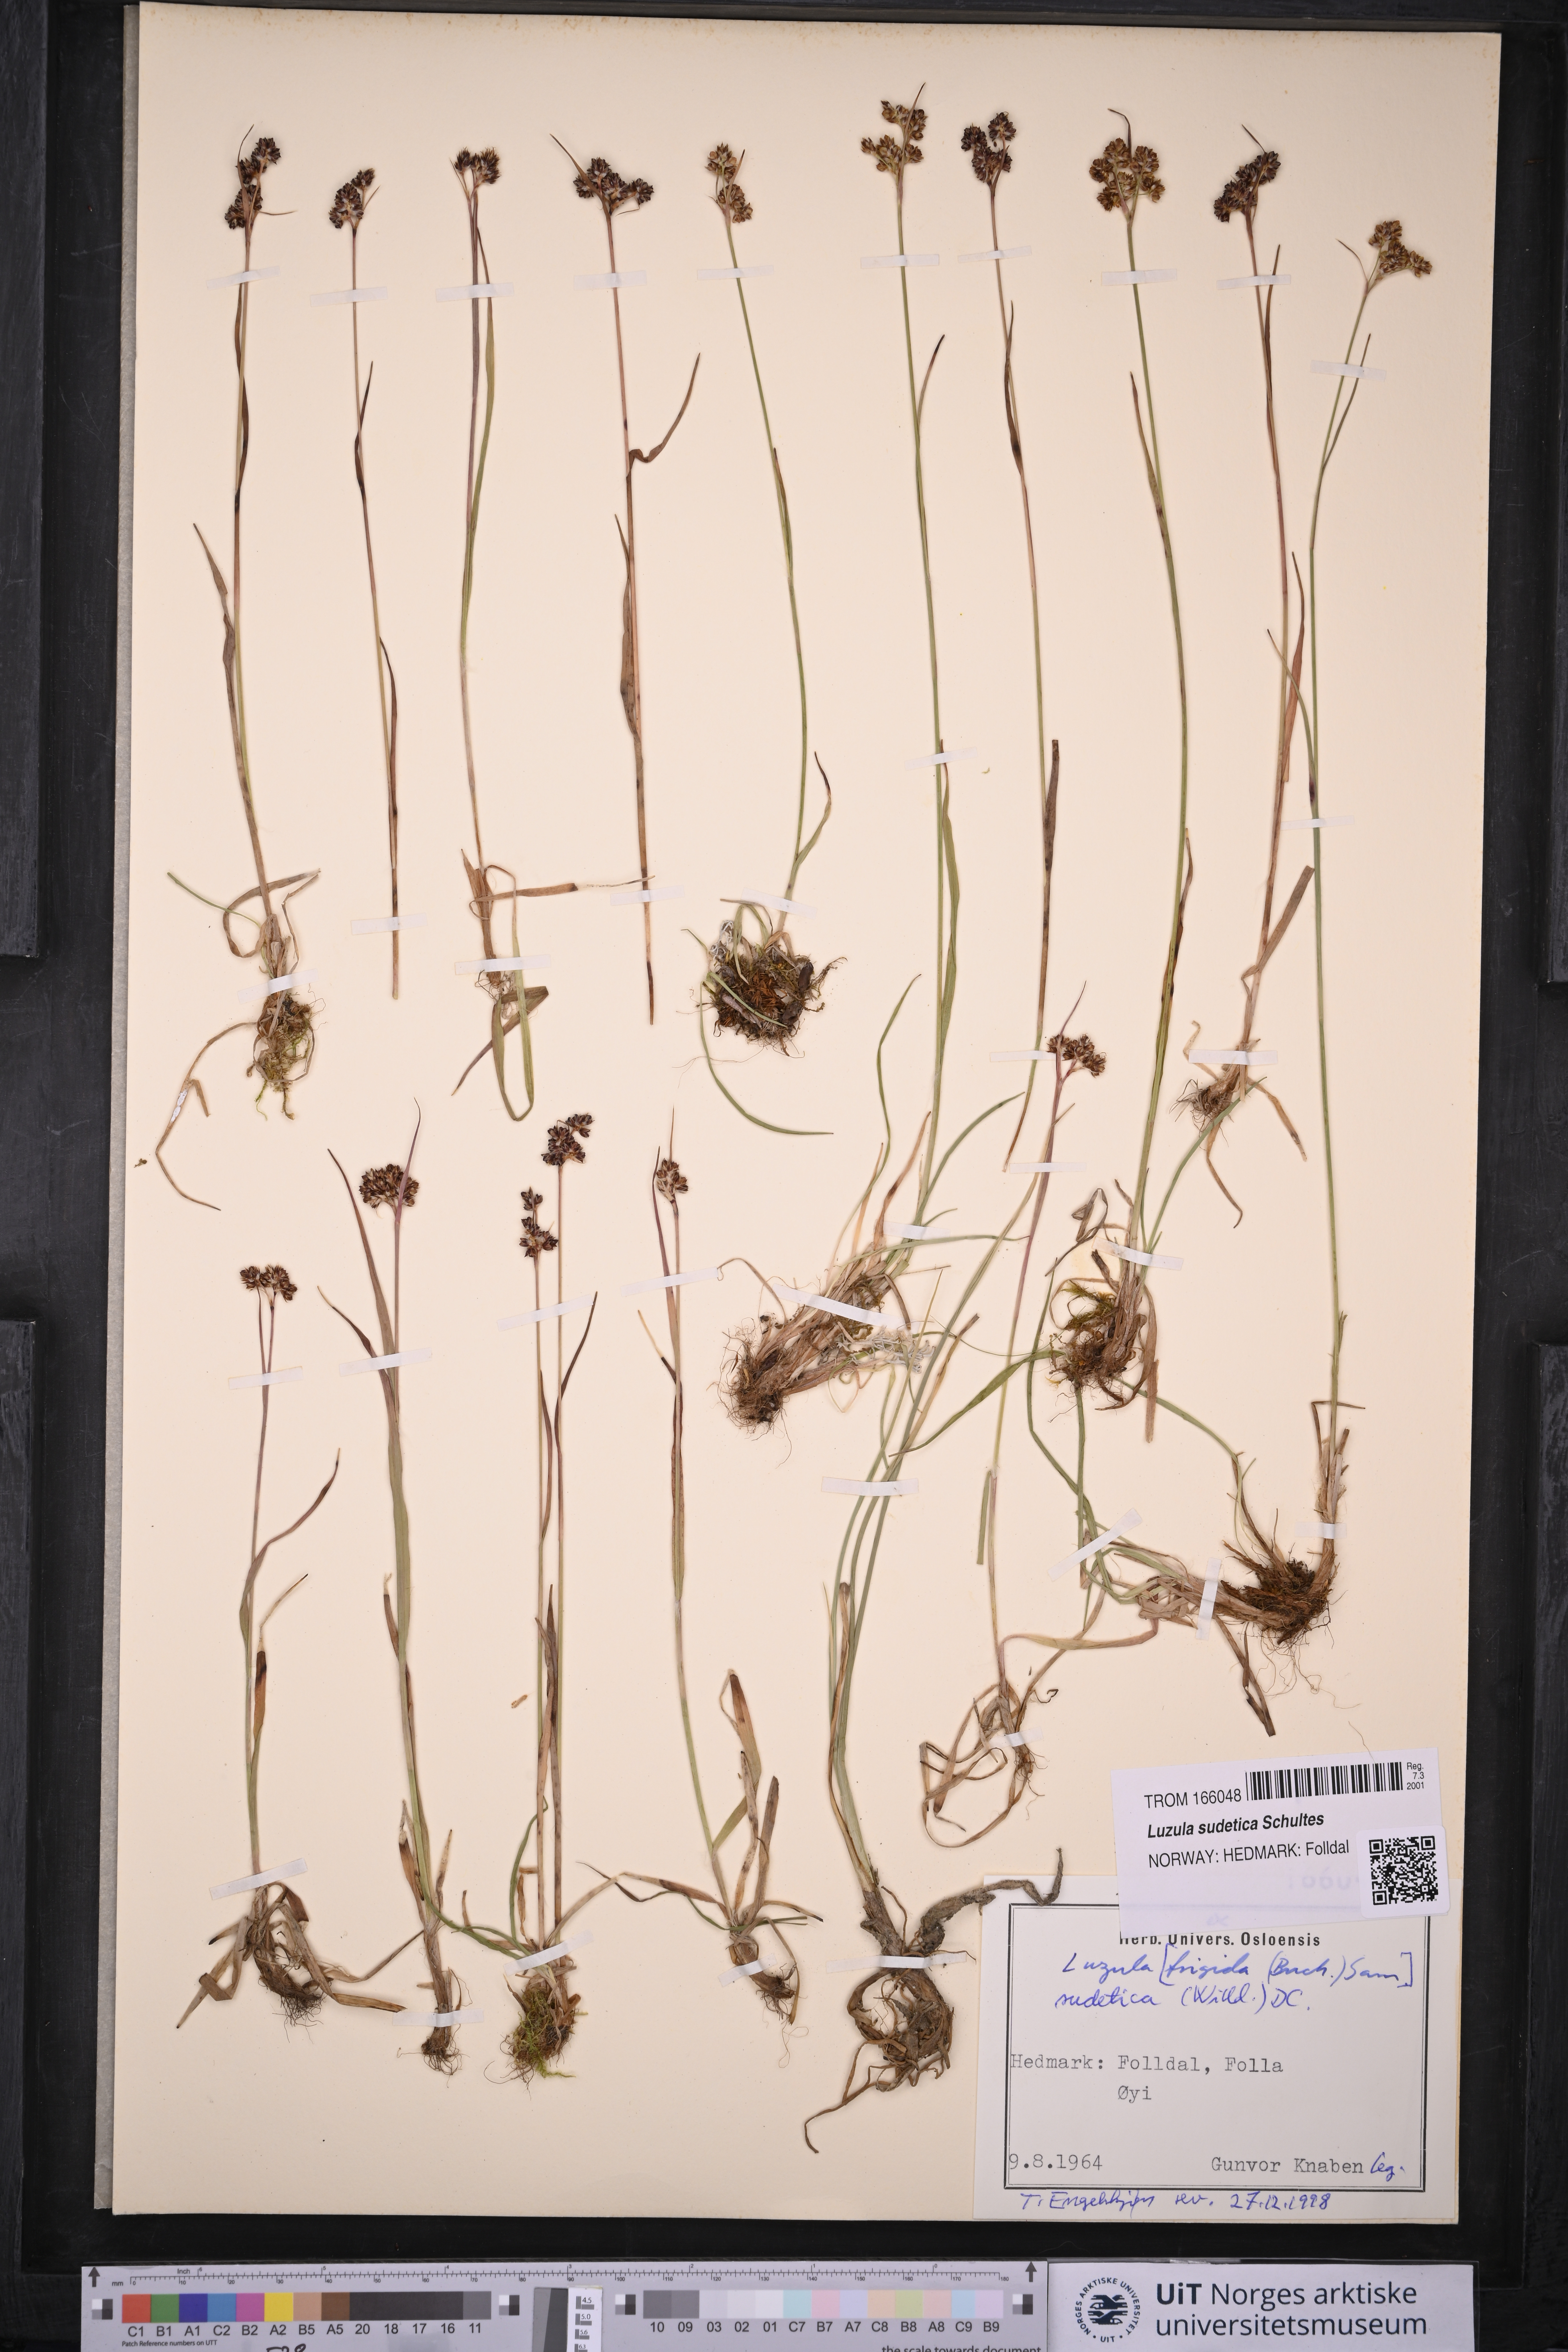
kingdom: Plantae
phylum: Tracheophyta
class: Liliopsida
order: Poales
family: Juncaceae
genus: Luzula
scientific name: Luzula sudetica
